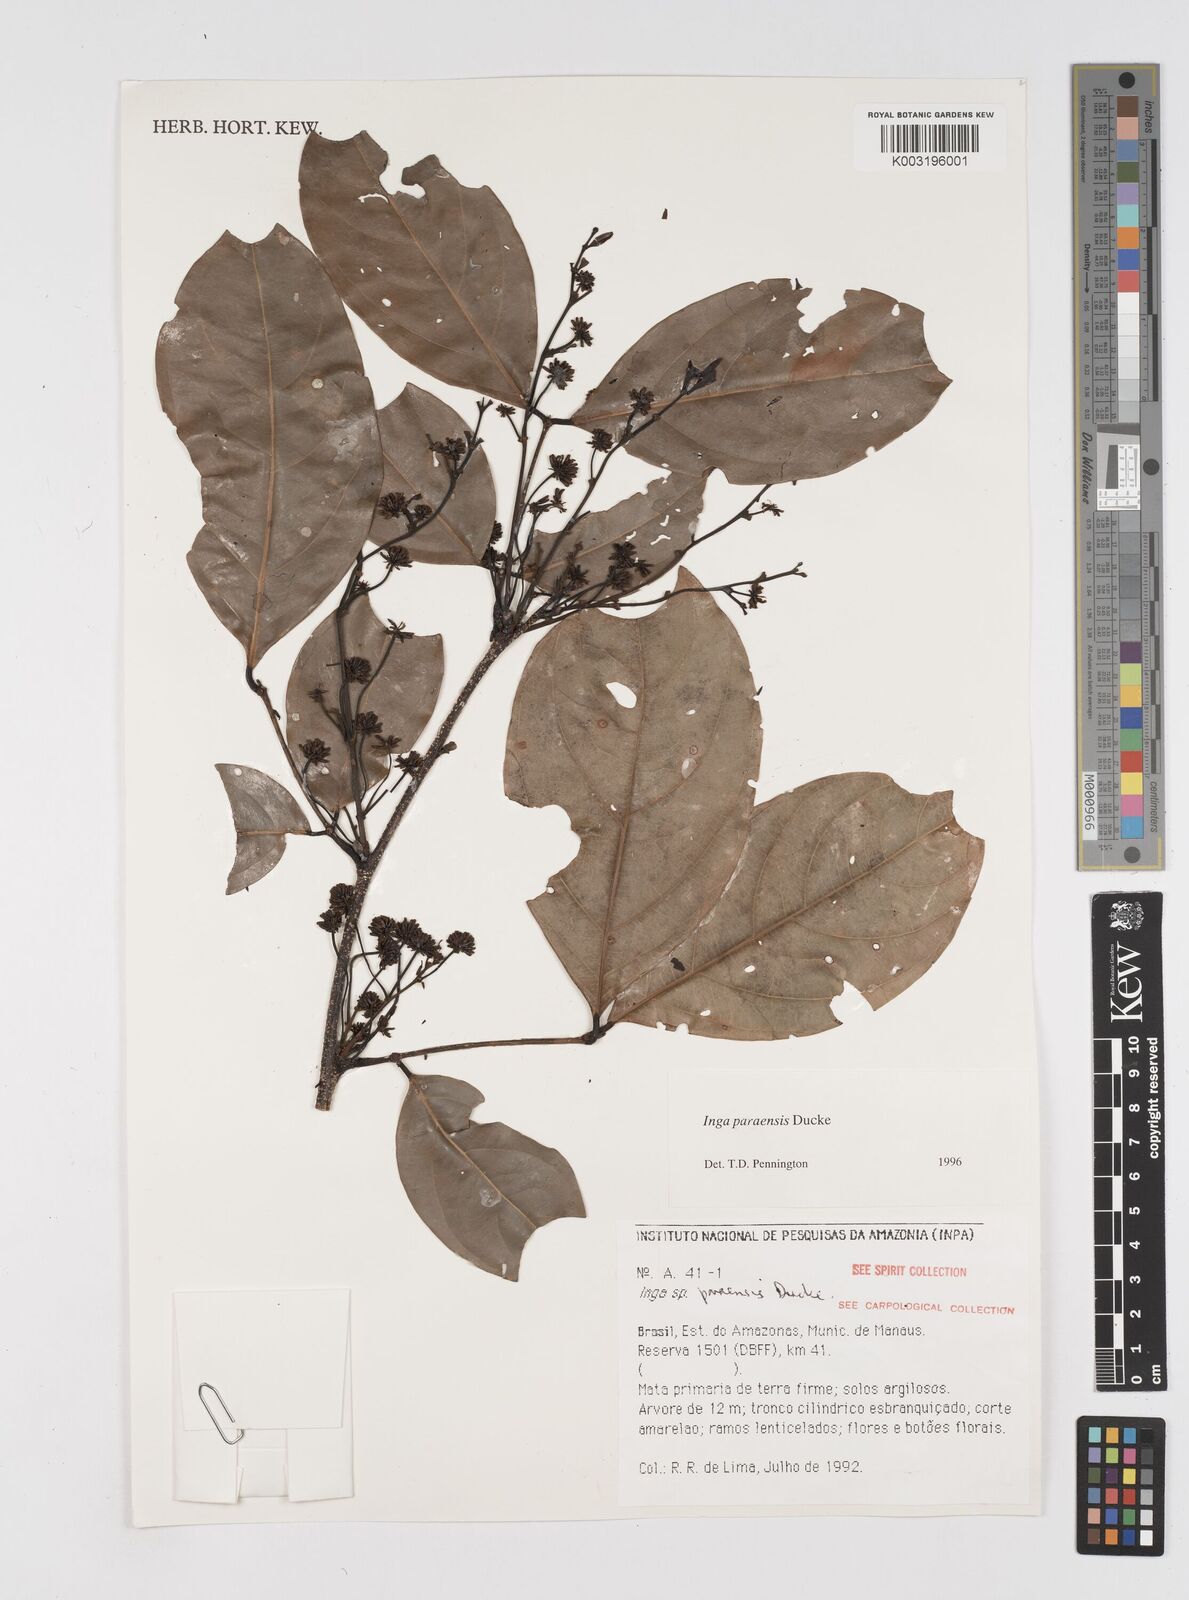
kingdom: Plantae
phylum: Tracheophyta
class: Magnoliopsida
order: Fabales
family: Fabaceae
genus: Inga
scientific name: Inga paraensis
